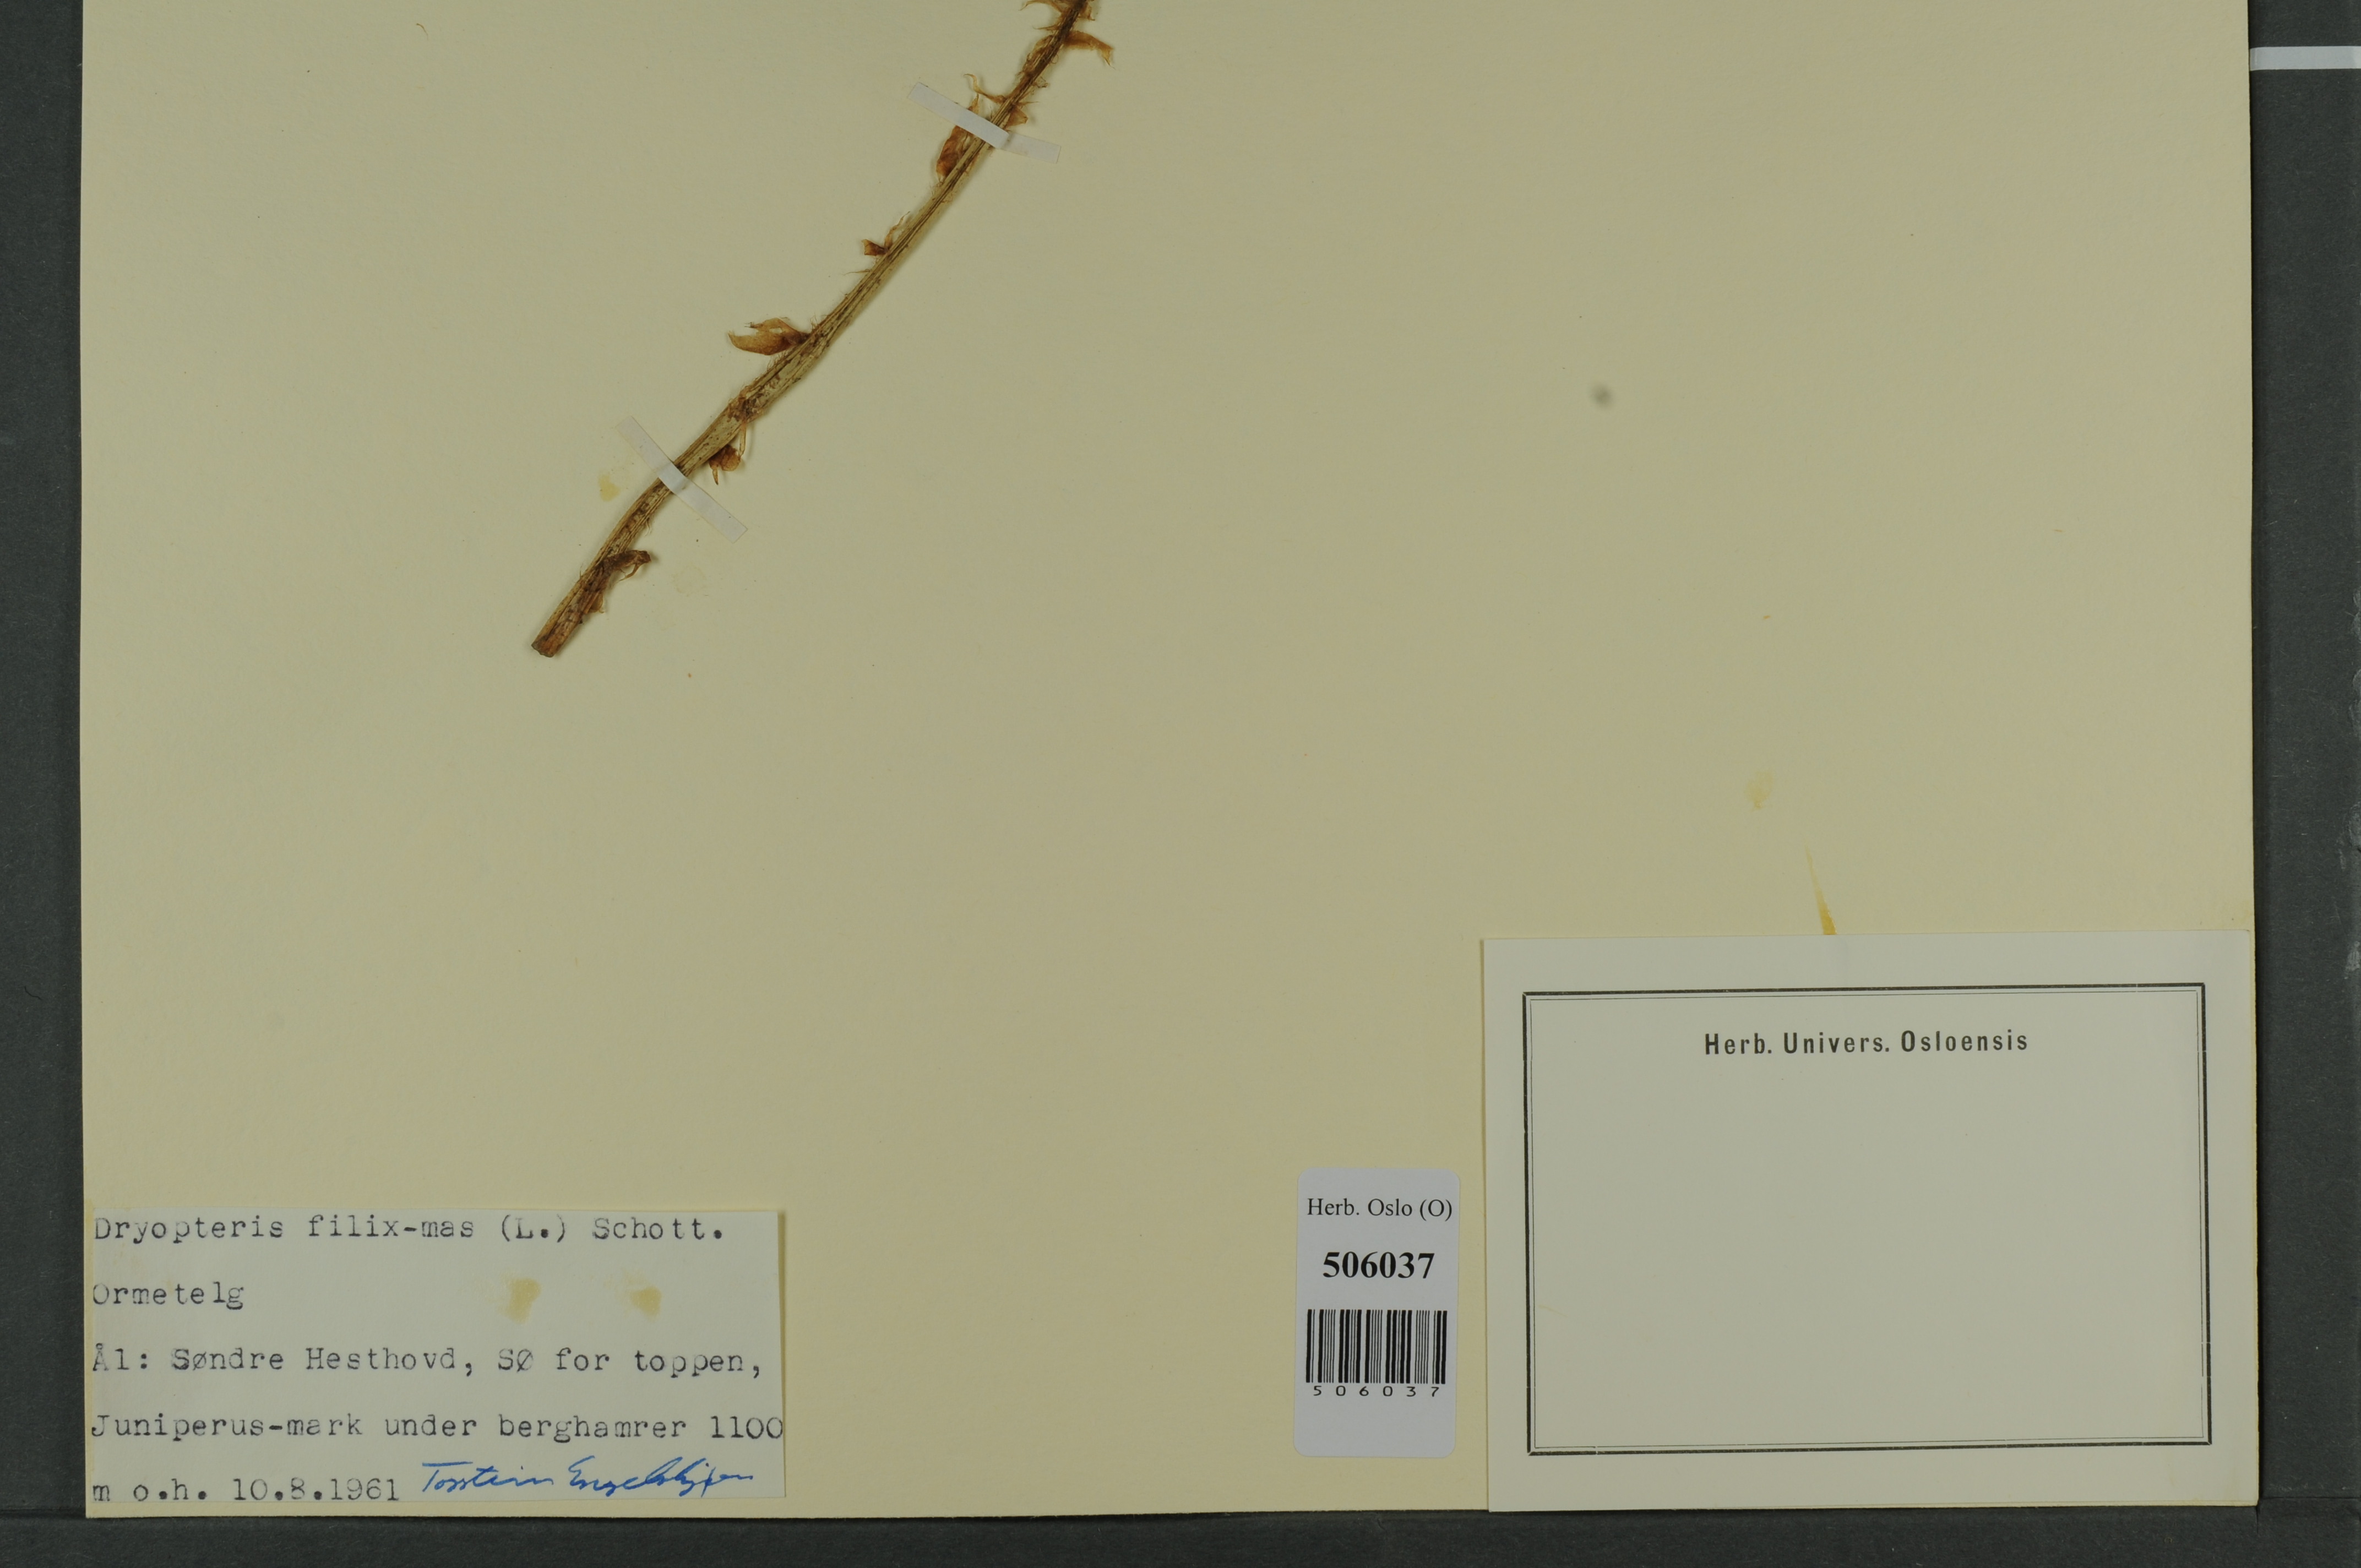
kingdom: Plantae
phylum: Tracheophyta
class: Polypodiopsida
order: Polypodiales
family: Dryopteridaceae
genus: Dryopteris
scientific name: Dryopteris filix-mas
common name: Male fern
